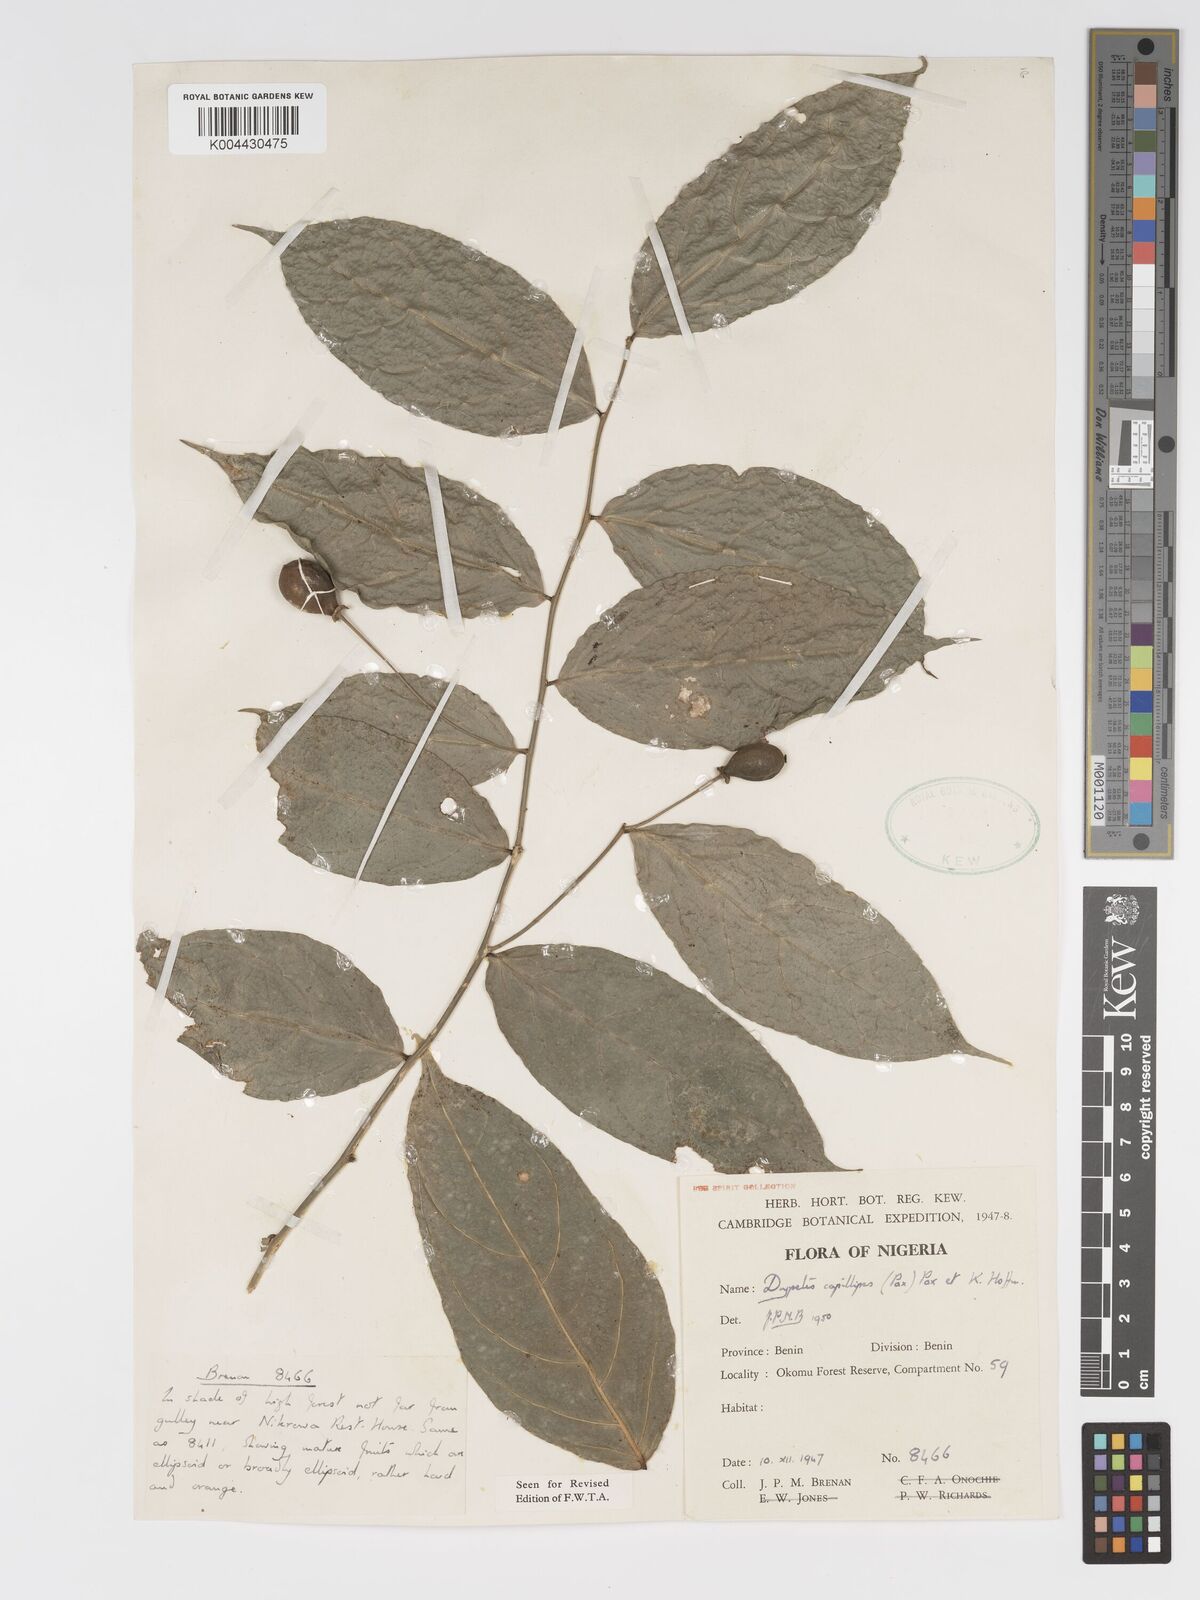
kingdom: Plantae
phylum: Tracheophyta
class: Magnoliopsida
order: Malpighiales
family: Putranjivaceae
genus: Drypetes
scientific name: Drypetes capillipes
